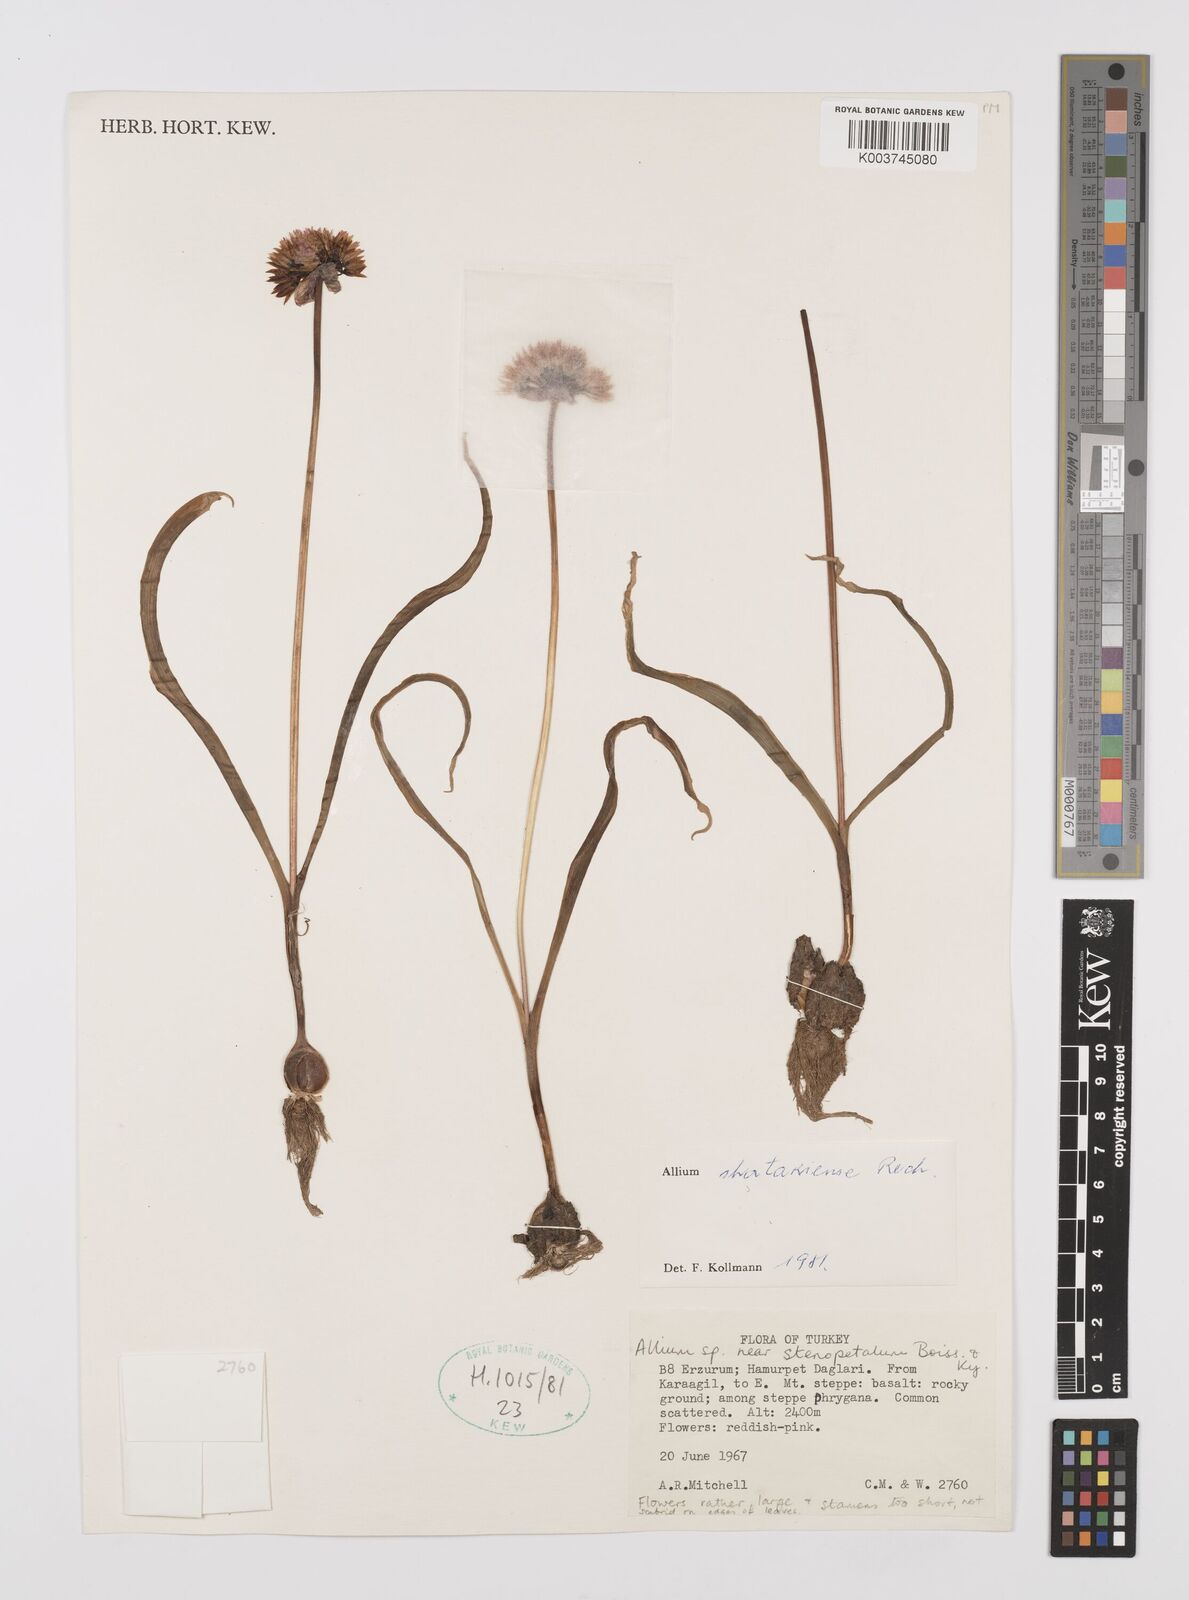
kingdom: Plantae
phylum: Tracheophyta
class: Liliopsida
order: Asparagales
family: Amaryllidaceae
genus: Allium
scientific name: Allium shatakiense
